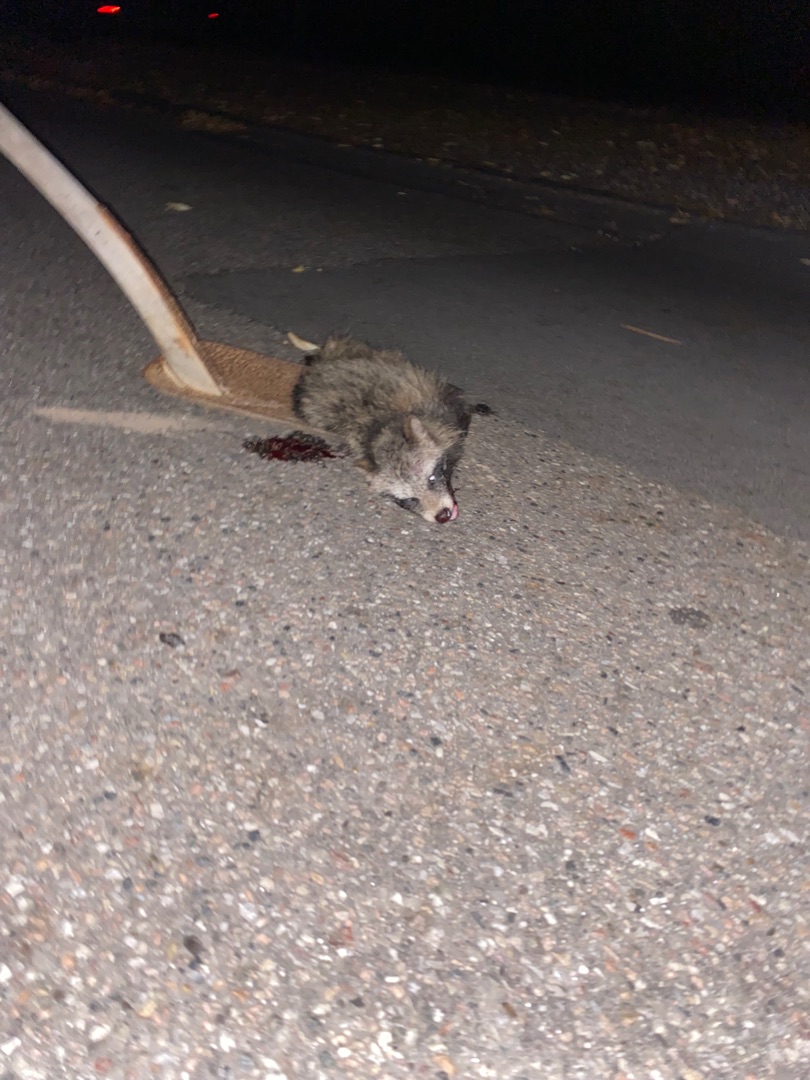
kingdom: Animalia
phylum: Chordata
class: Mammalia
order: Carnivora
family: Canidae
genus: Nyctereutes
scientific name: Nyctereutes procyonoides
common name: Mårhund
